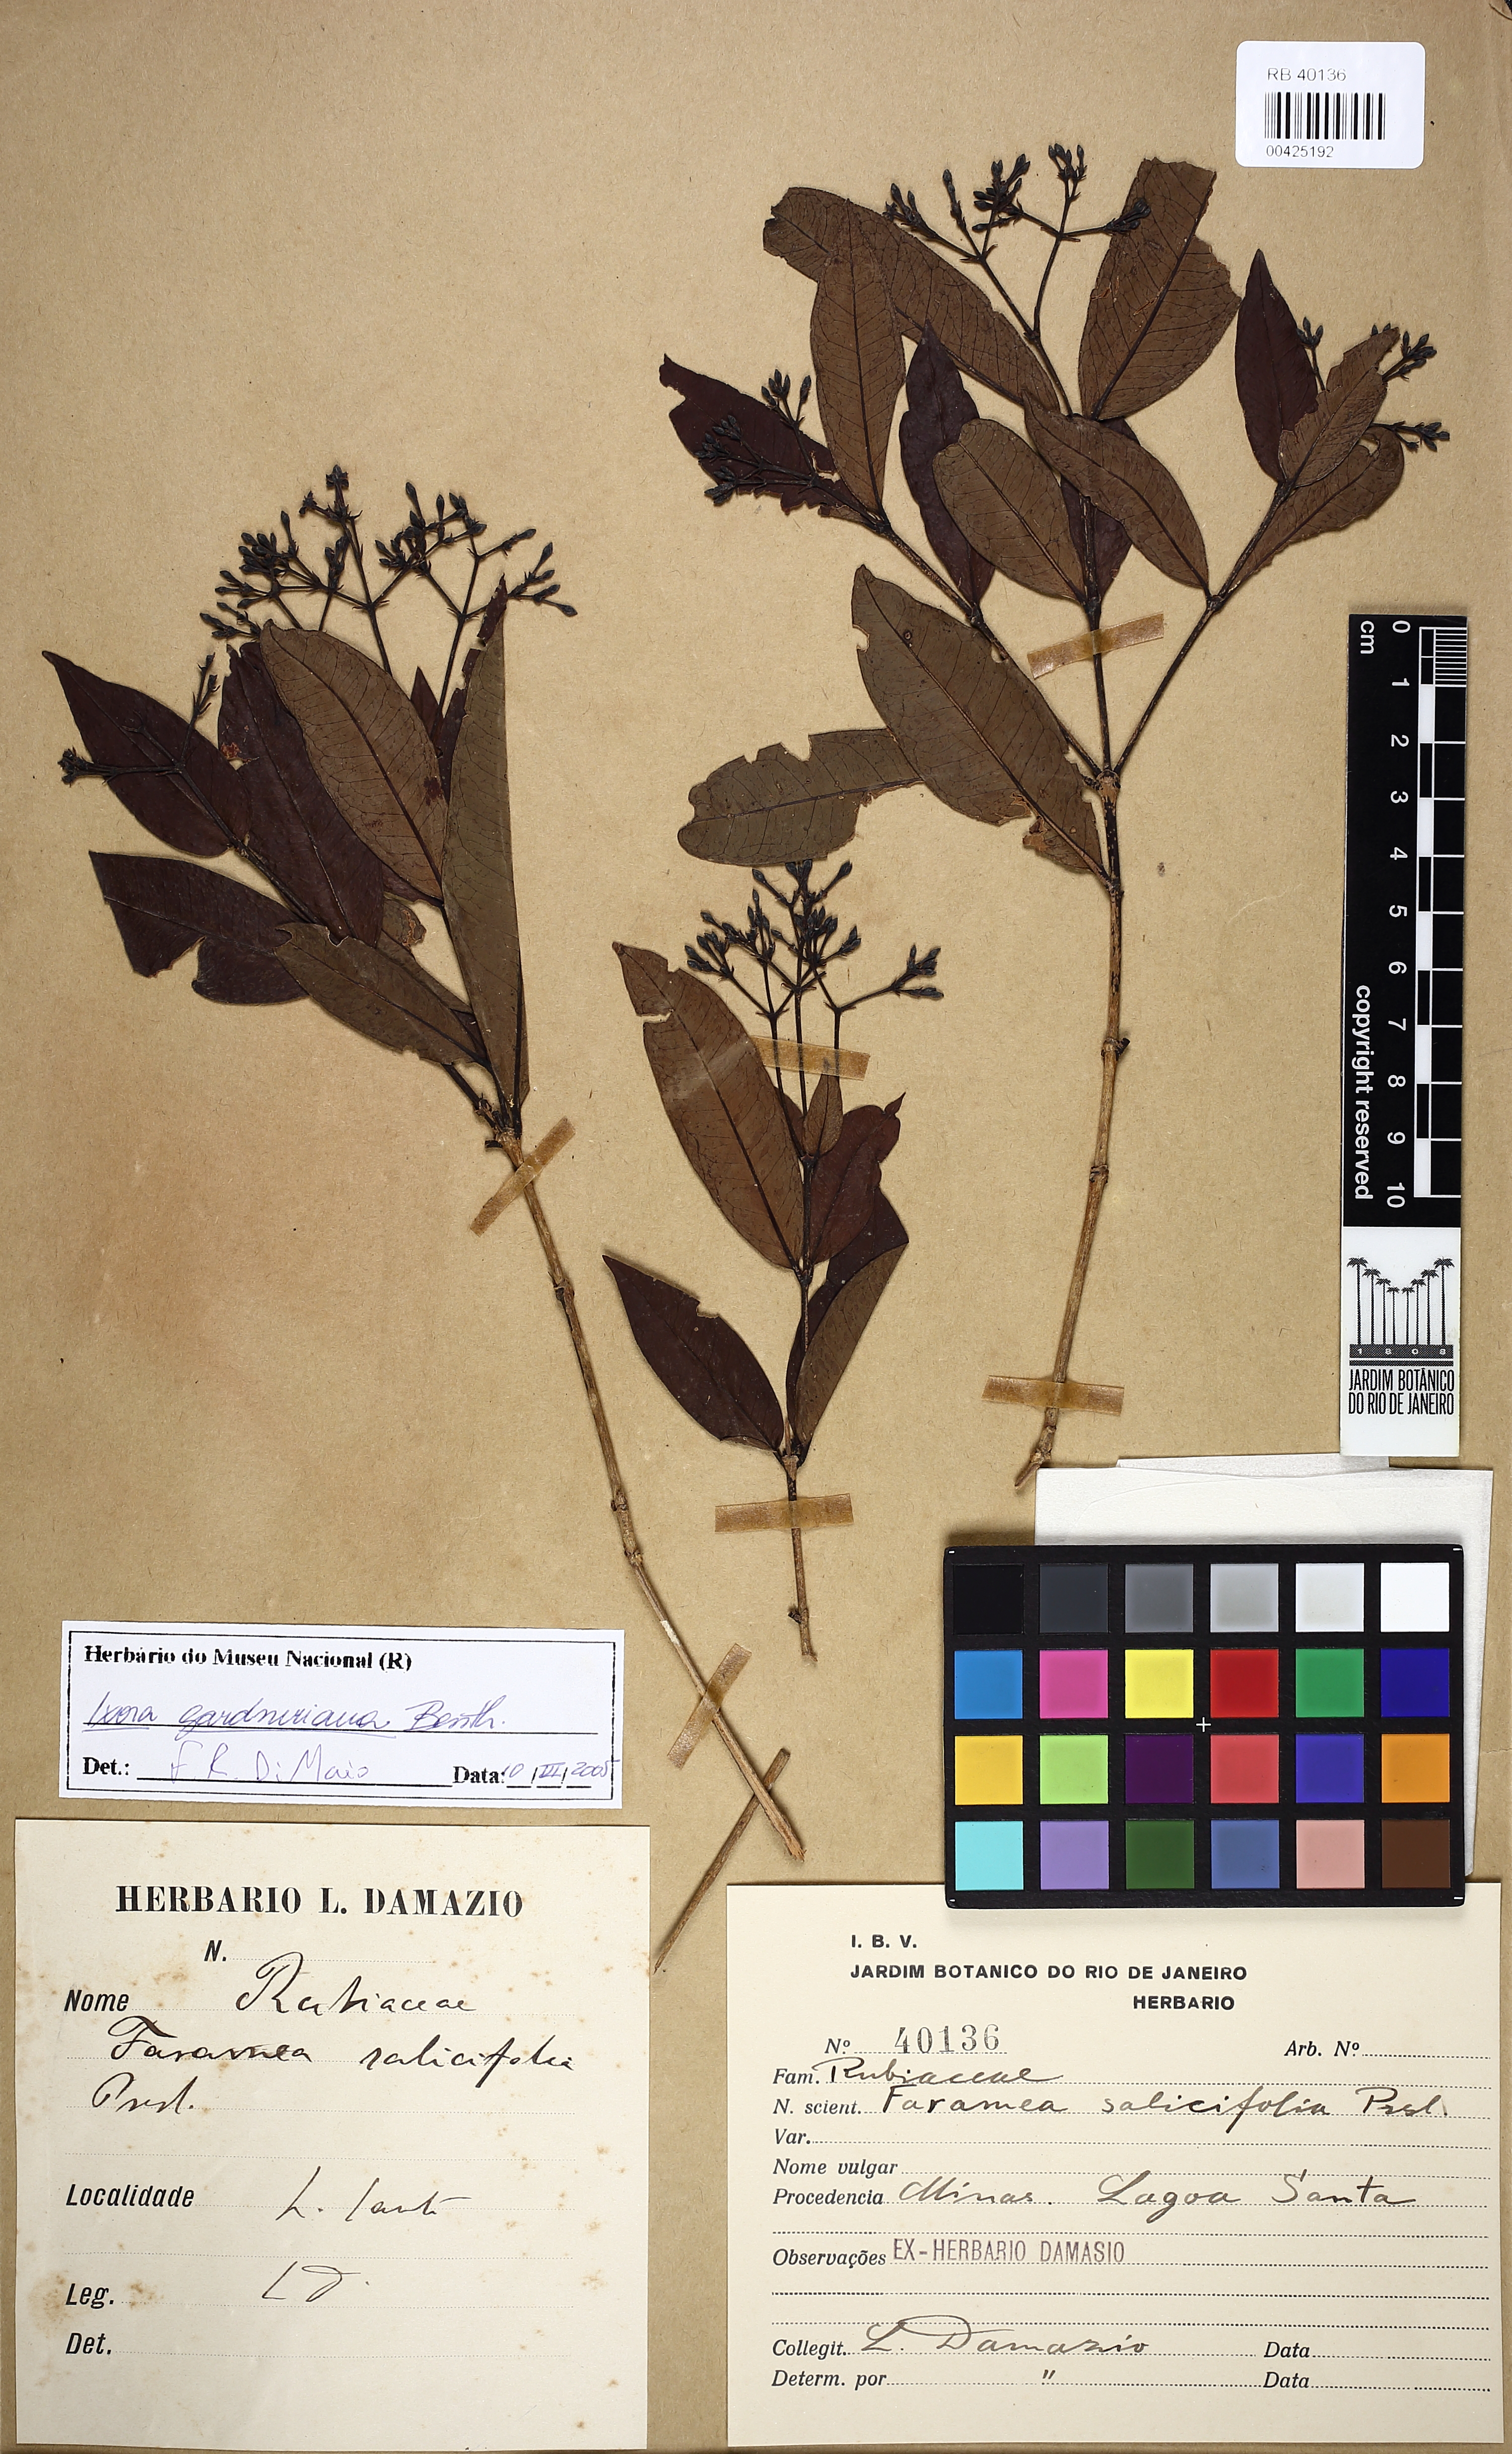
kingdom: Plantae
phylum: Tracheophyta
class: Magnoliopsida
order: Gentianales
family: Rubiaceae
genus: Ixora
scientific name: Ixora gardneriana
